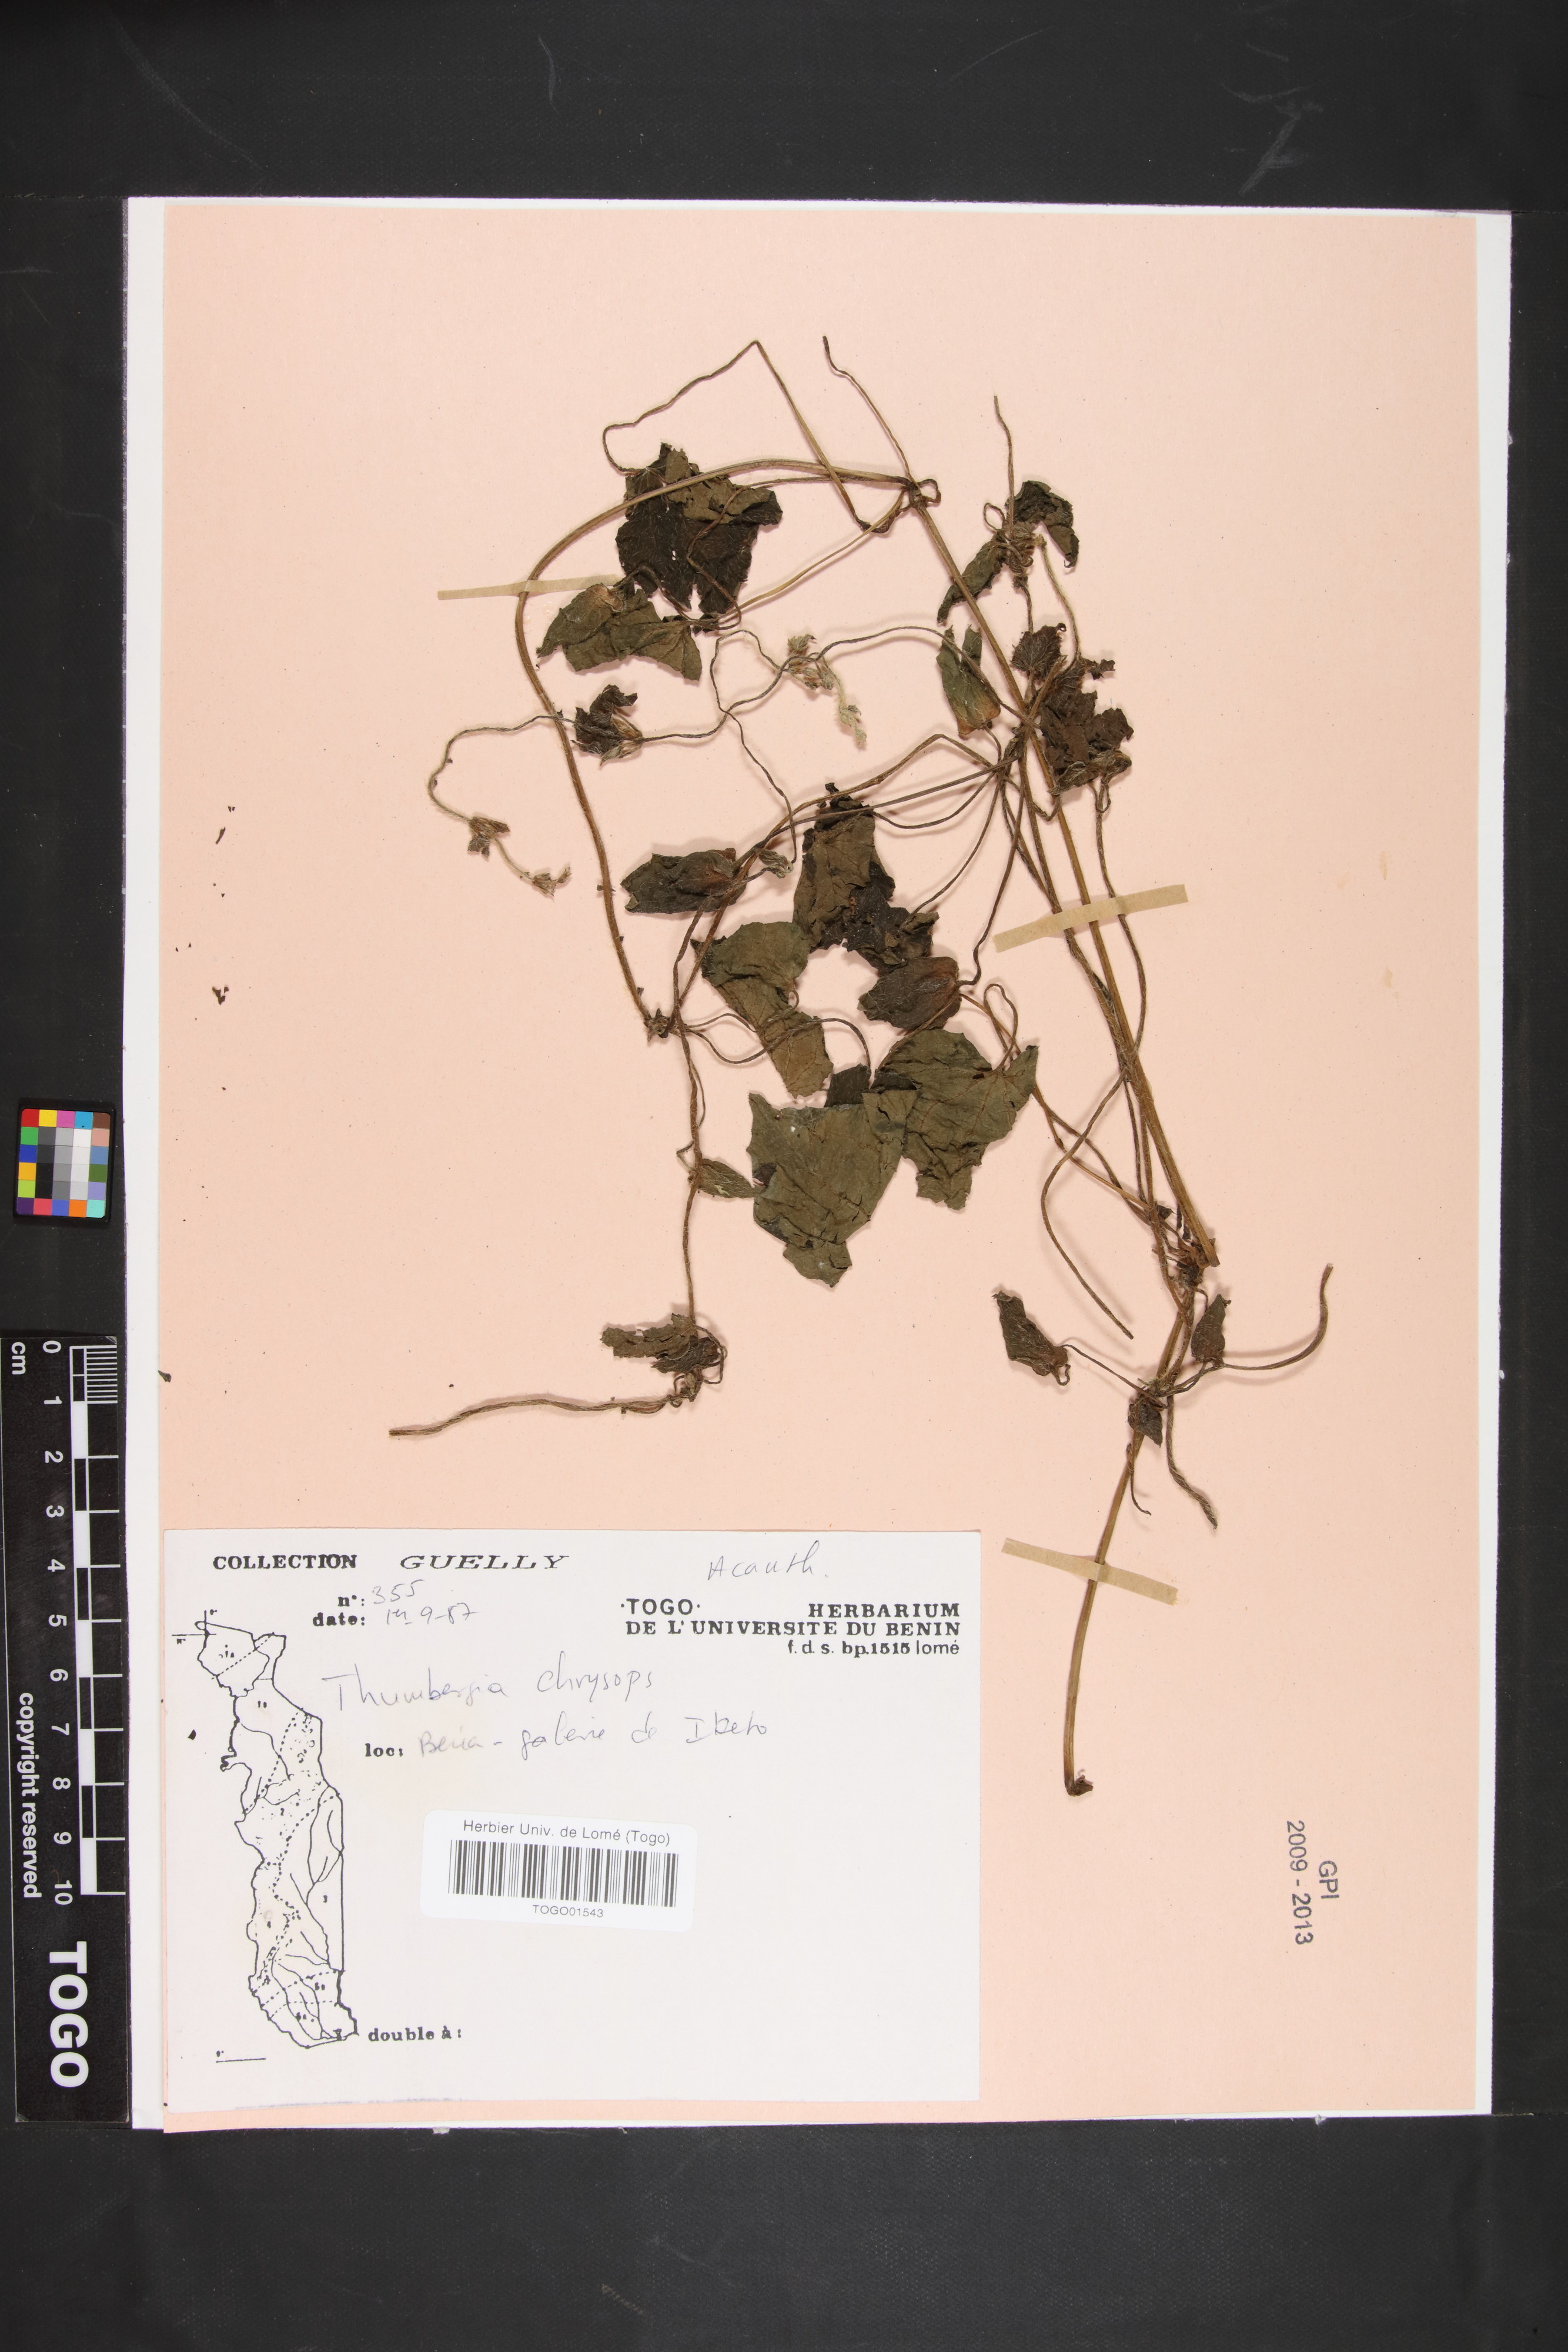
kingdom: Plantae
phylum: Tracheophyta
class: Magnoliopsida
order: Lamiales
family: Acanthaceae
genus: Thunbergia
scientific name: Thunbergia chrysops
